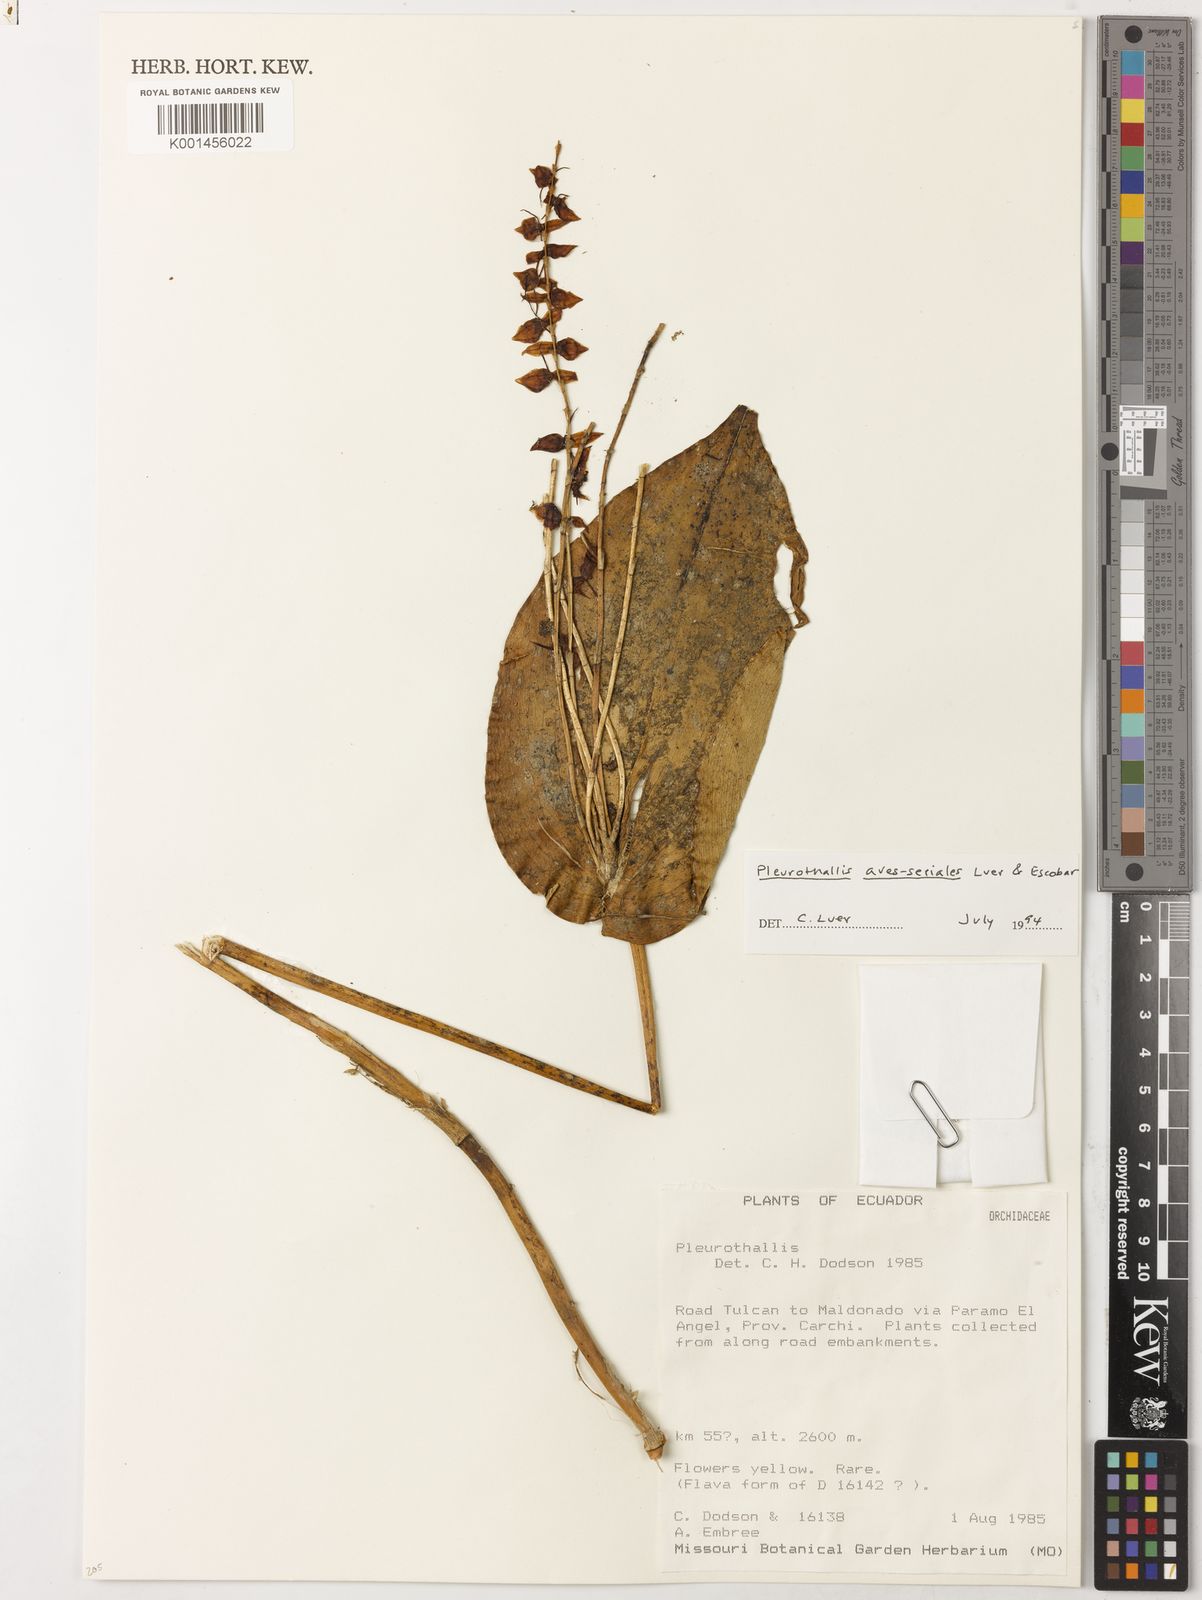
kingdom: Plantae
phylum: Tracheophyta
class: Liliopsida
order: Asparagales
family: Orchidaceae
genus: Pleurothallis
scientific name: Pleurothallis penduliflora
